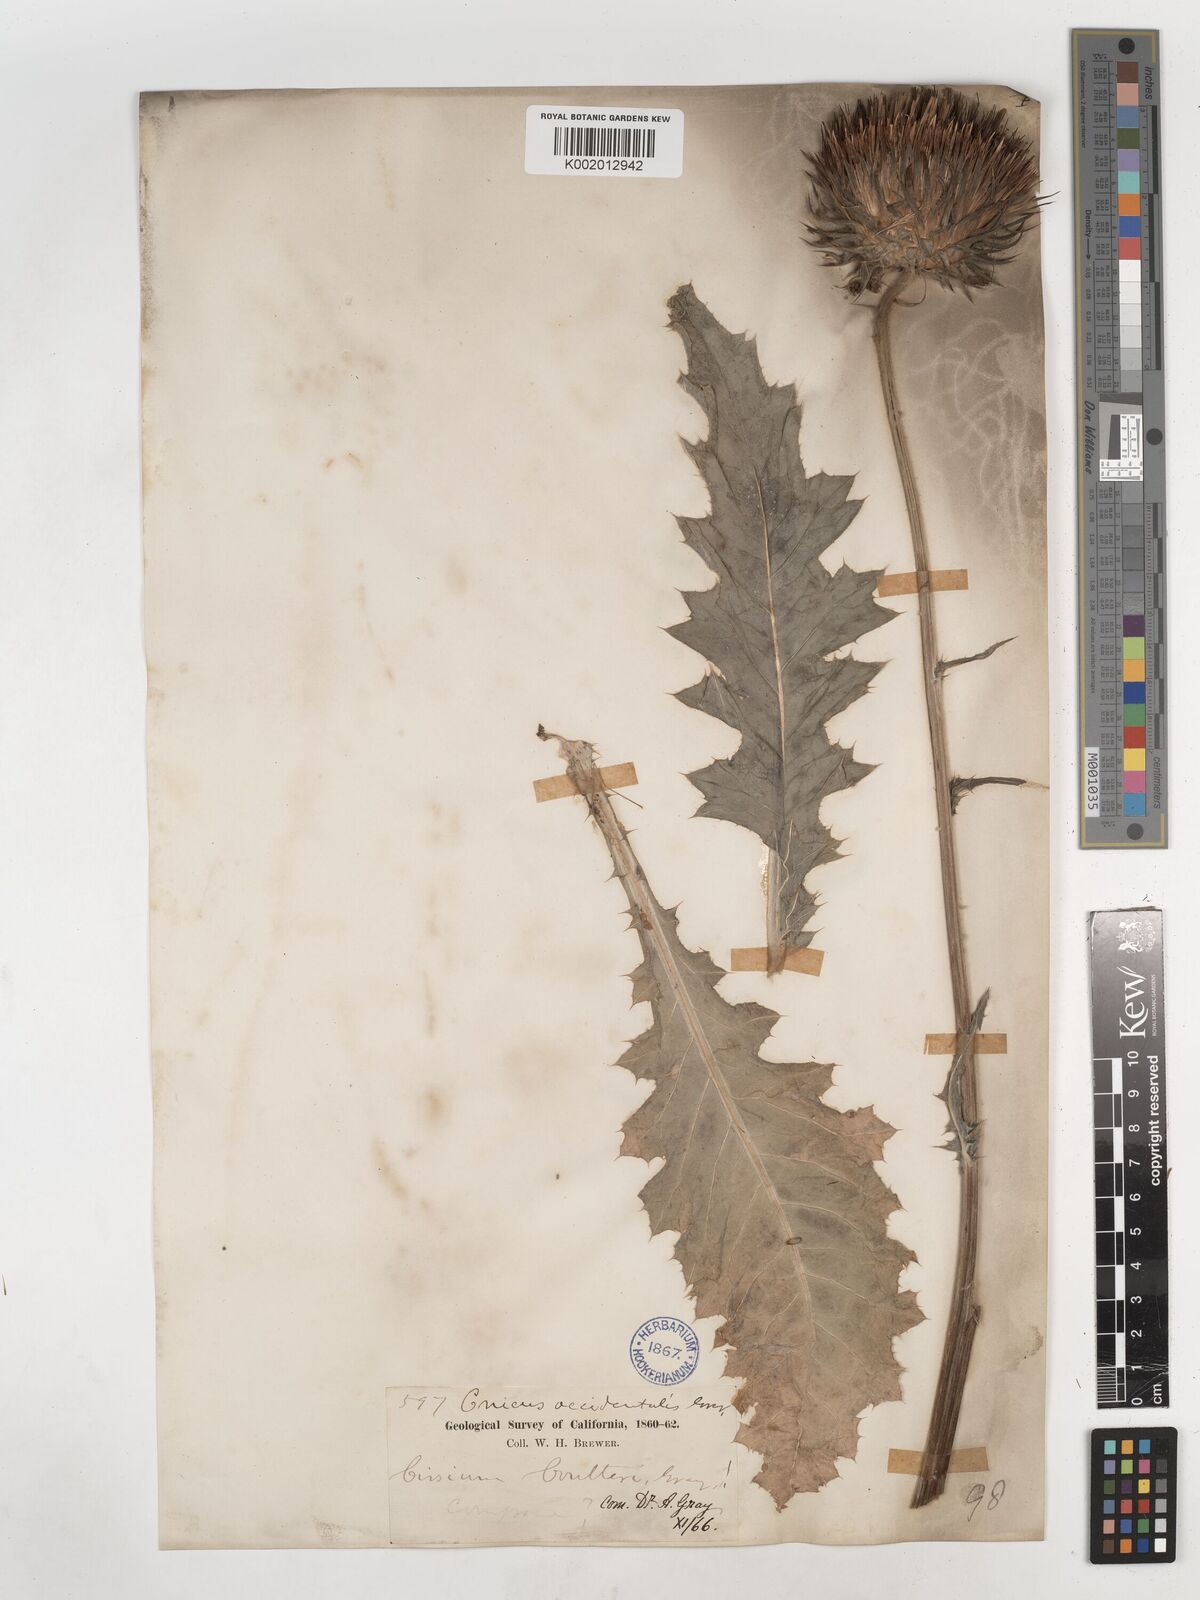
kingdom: Plantae
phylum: Tracheophyta
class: Magnoliopsida
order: Asterales
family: Asteraceae
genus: Cirsium
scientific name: Cirsium occidentale
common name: Western thistle
